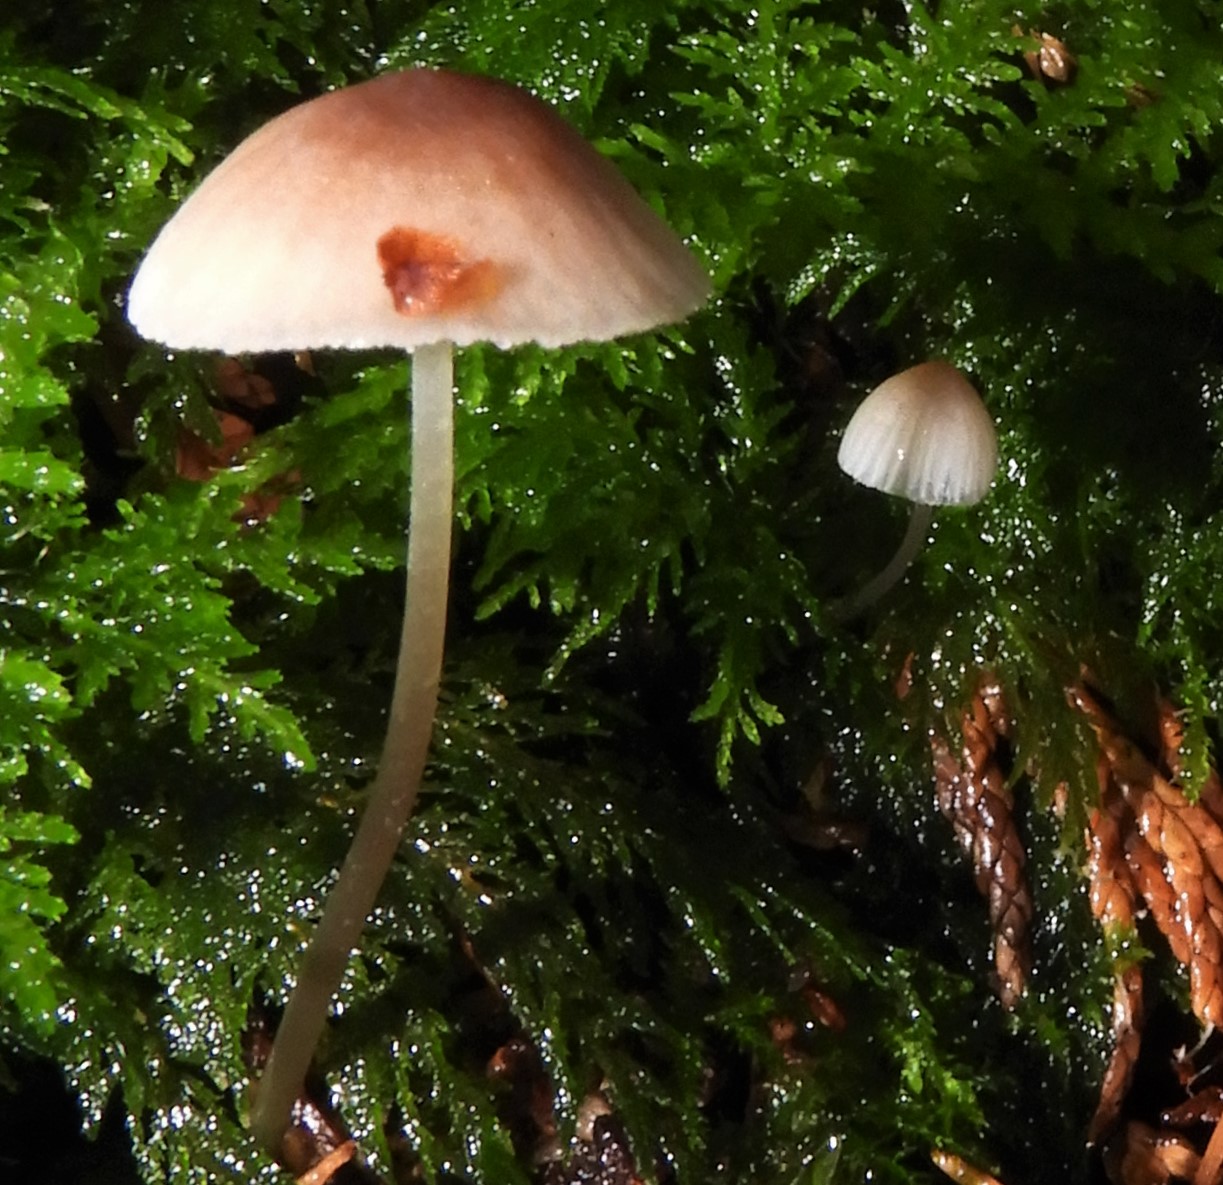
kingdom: Fungi
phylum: Basidiomycota
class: Agaricomycetes
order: Agaricales
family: Mycenaceae
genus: Mycena
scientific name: Mycena metata
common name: rødlig huesvamp
